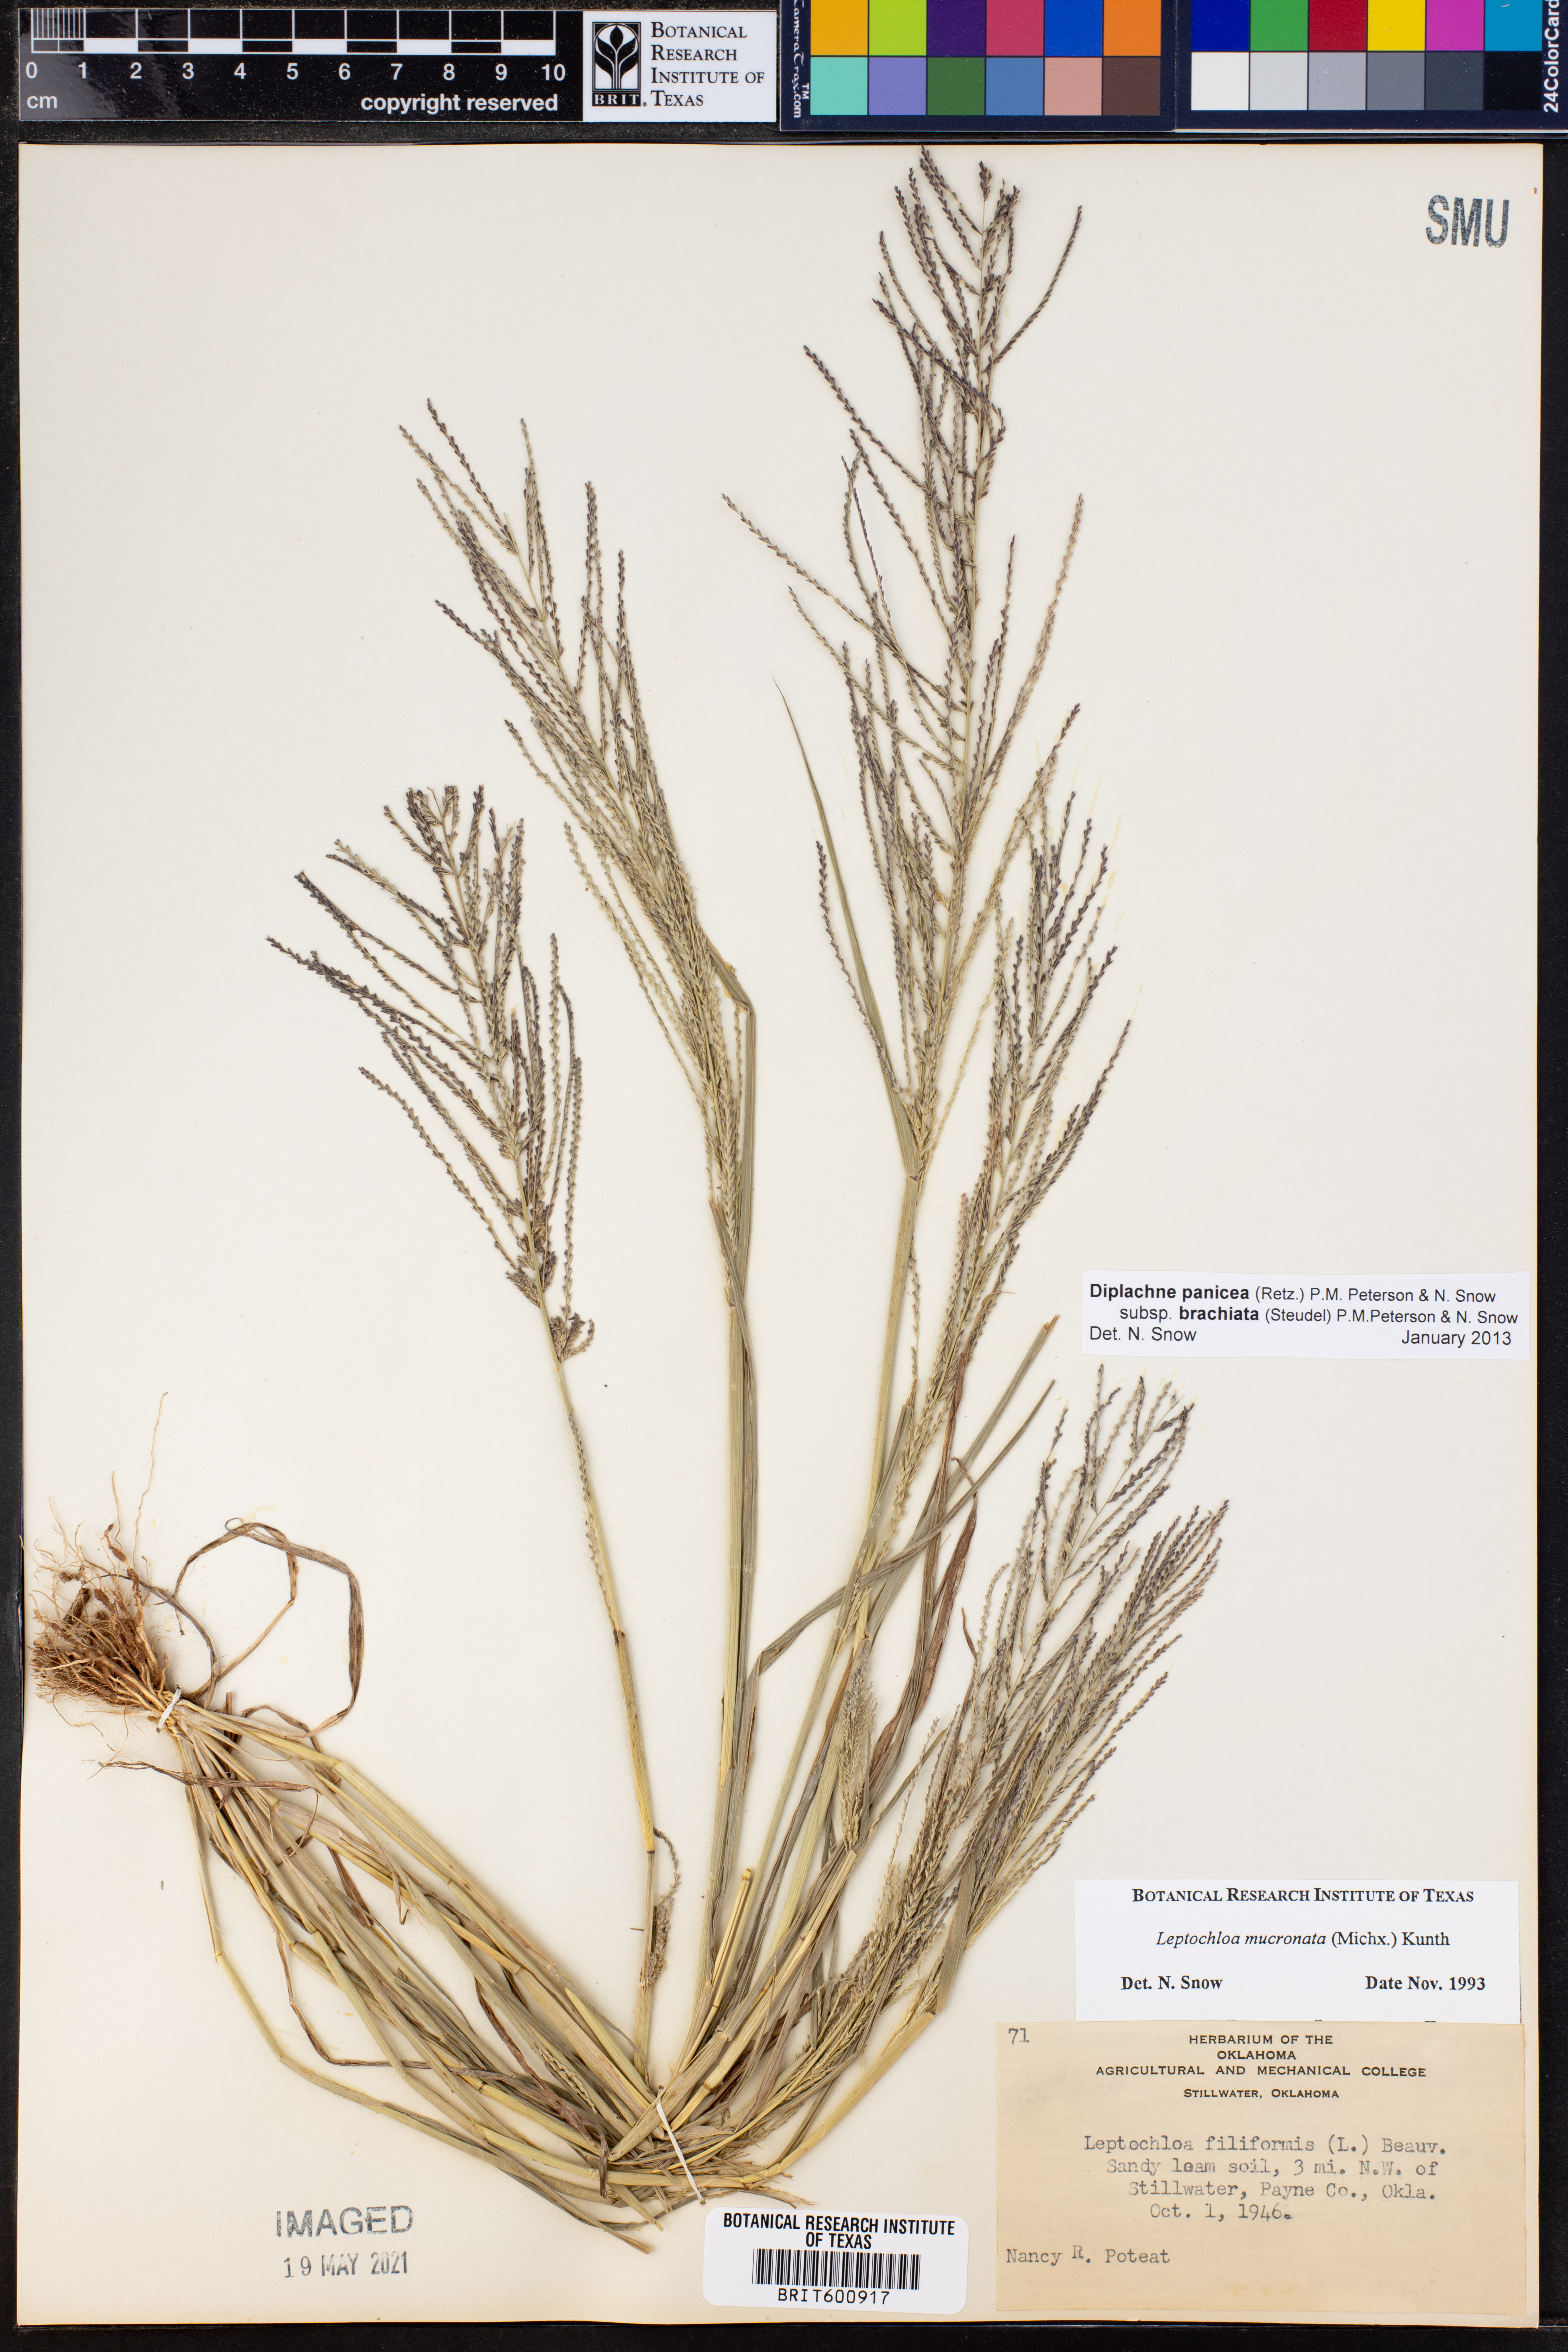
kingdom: Plantae
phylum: Tracheophyta
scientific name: Tracheophyta
